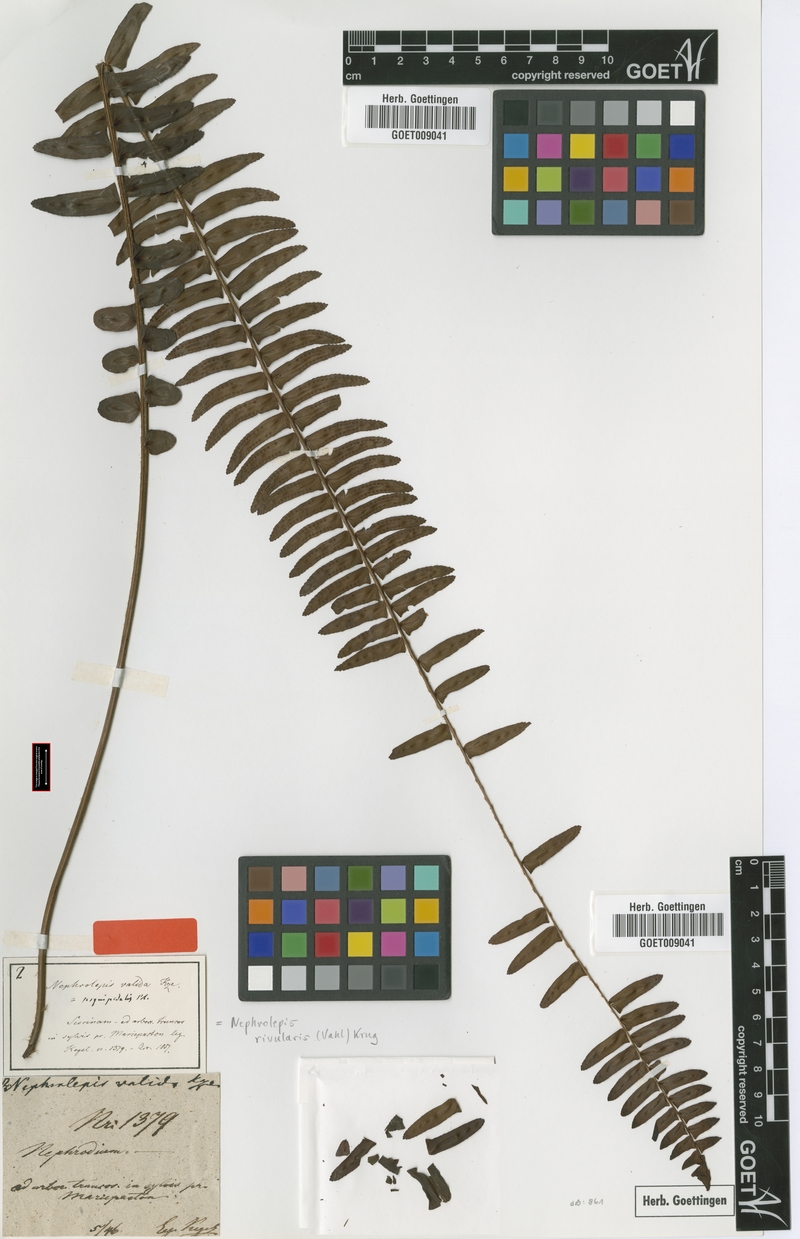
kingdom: Plantae
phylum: Tracheophyta
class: Polypodiopsida
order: Polypodiales
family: Nephrolepidaceae
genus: Nephrolepis
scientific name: Nephrolepis rivularis
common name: Streamside swordfern
